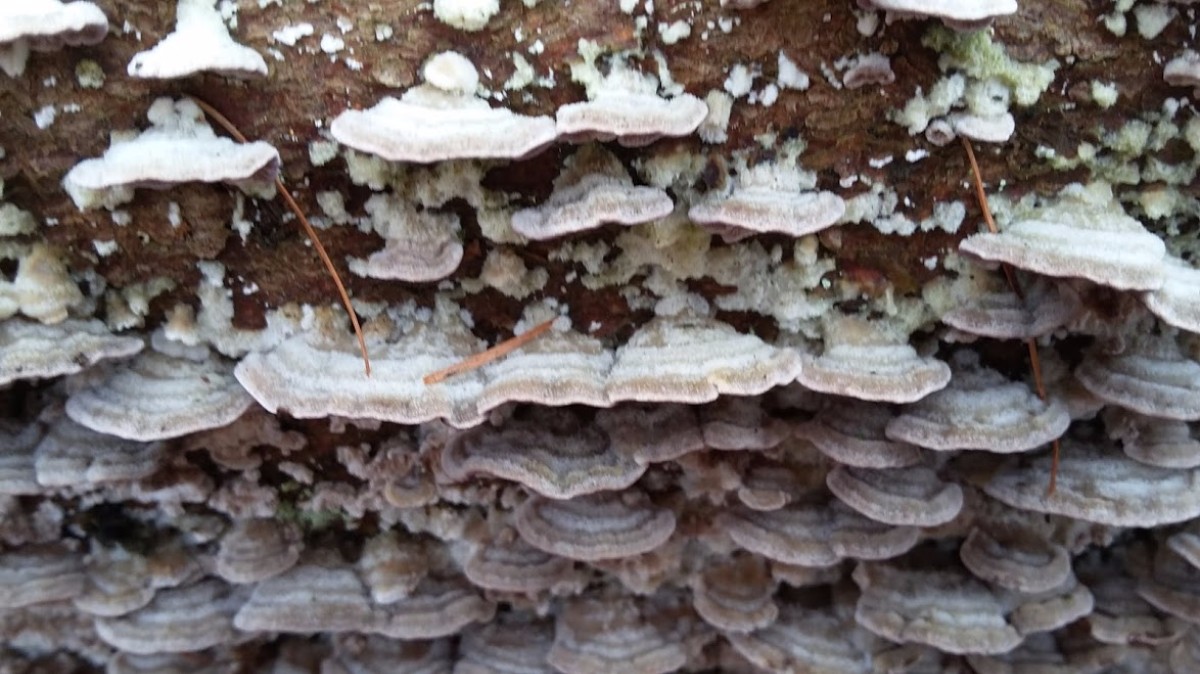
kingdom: Fungi
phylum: Basidiomycota
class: Agaricomycetes
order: Hymenochaetales
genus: Trichaptum
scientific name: Trichaptum abietinum
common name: almindelig violporesvamp
